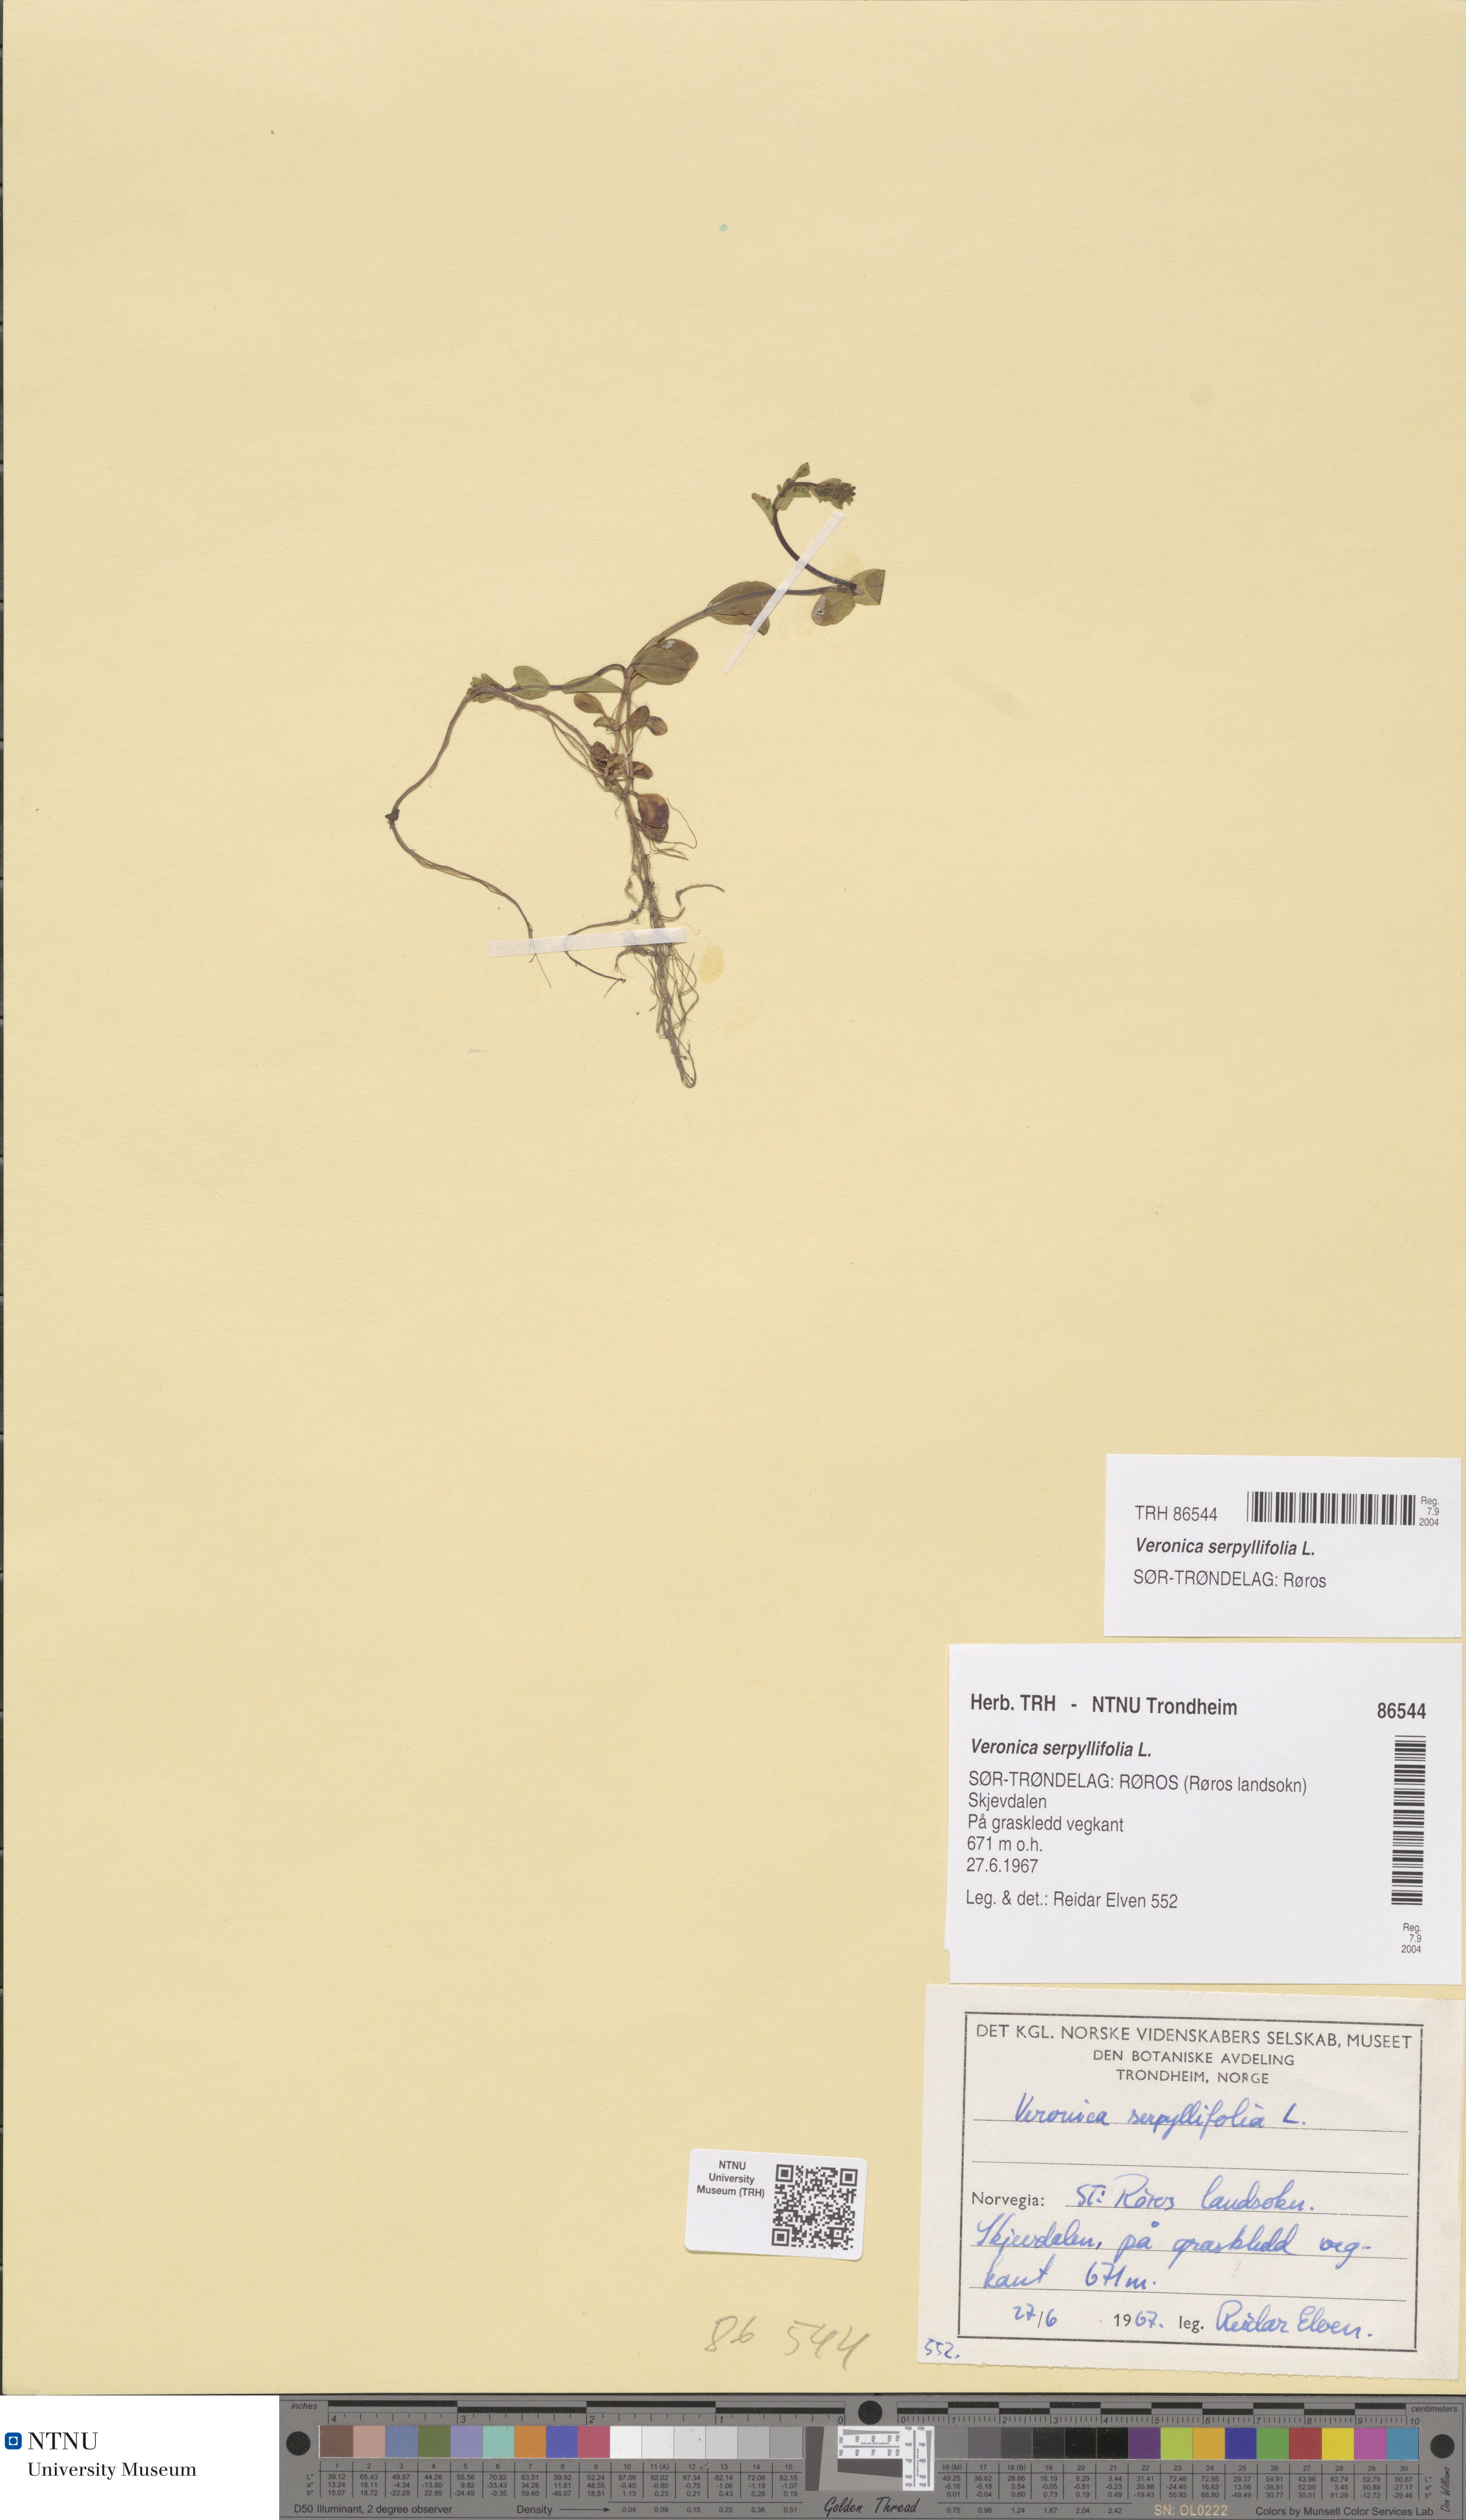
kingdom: Plantae
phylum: Tracheophyta
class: Magnoliopsida
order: Lamiales
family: Plantaginaceae
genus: Veronica
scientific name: Veronica serpyllifolia
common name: Thyme-leaved speedwell
